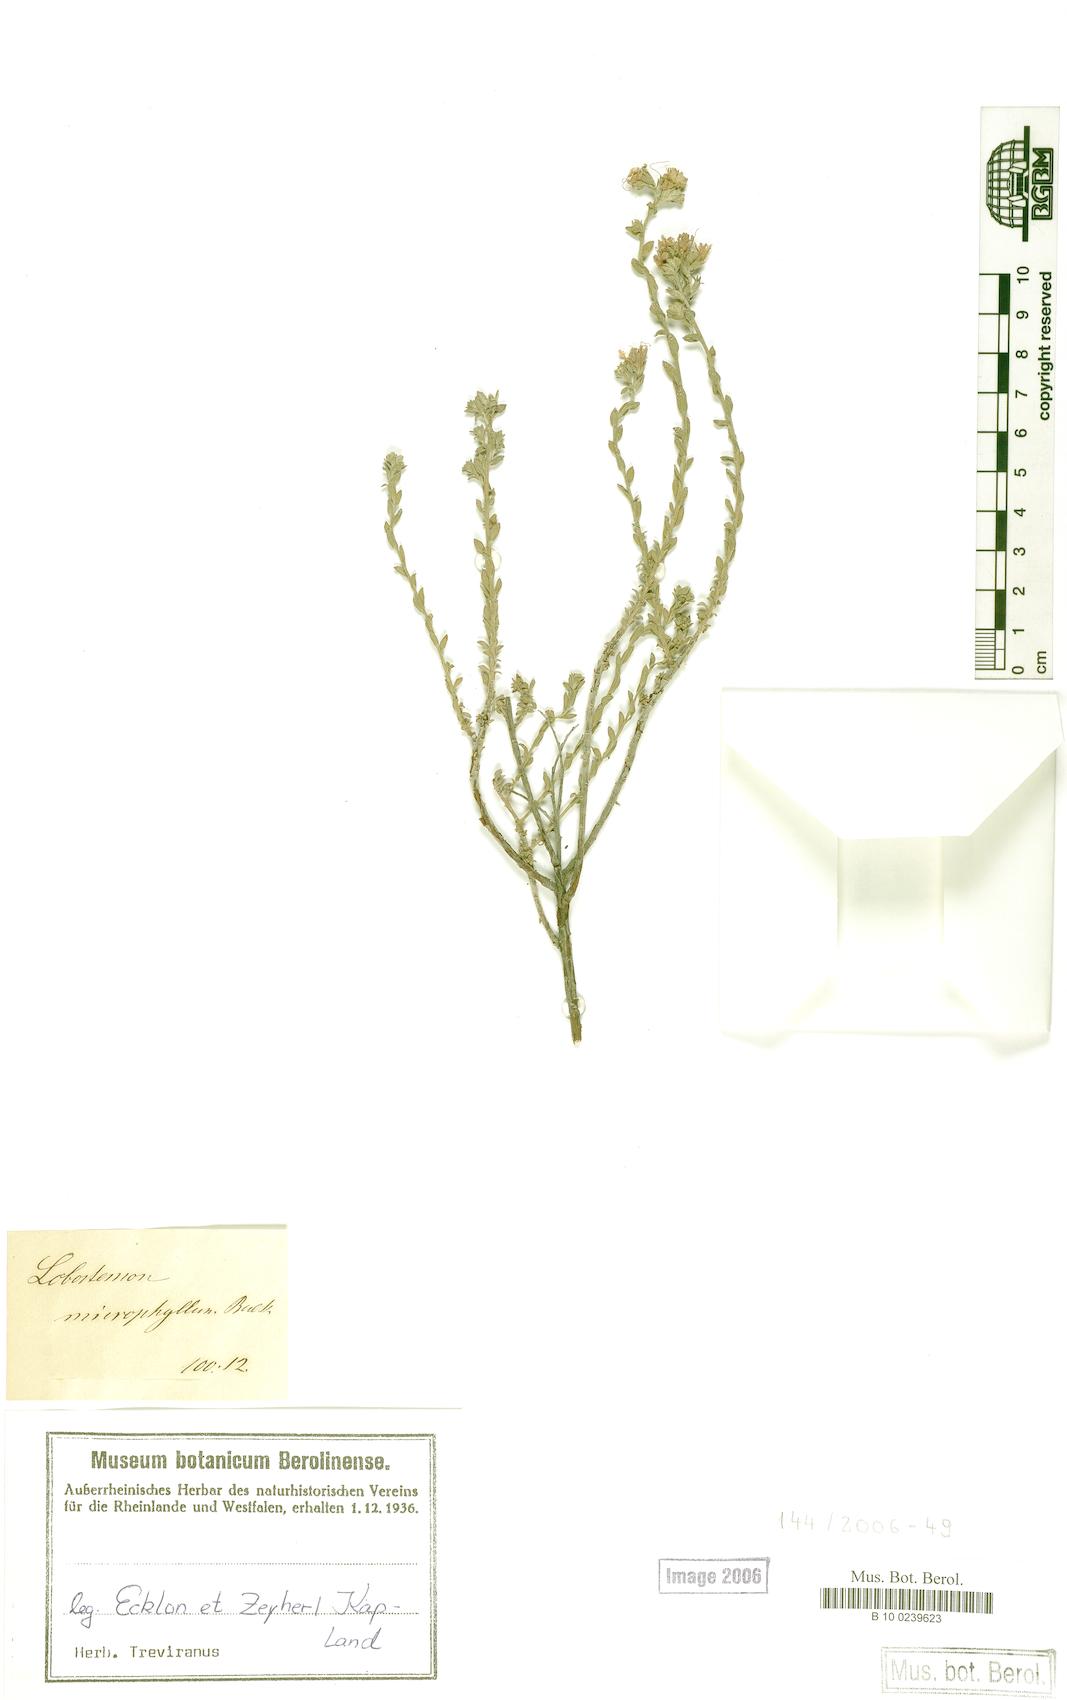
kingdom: Plantae
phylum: Tracheophyta
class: Magnoliopsida
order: Boraginales
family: Boraginaceae
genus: Lobostemon
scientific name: Lobostemon echioides
